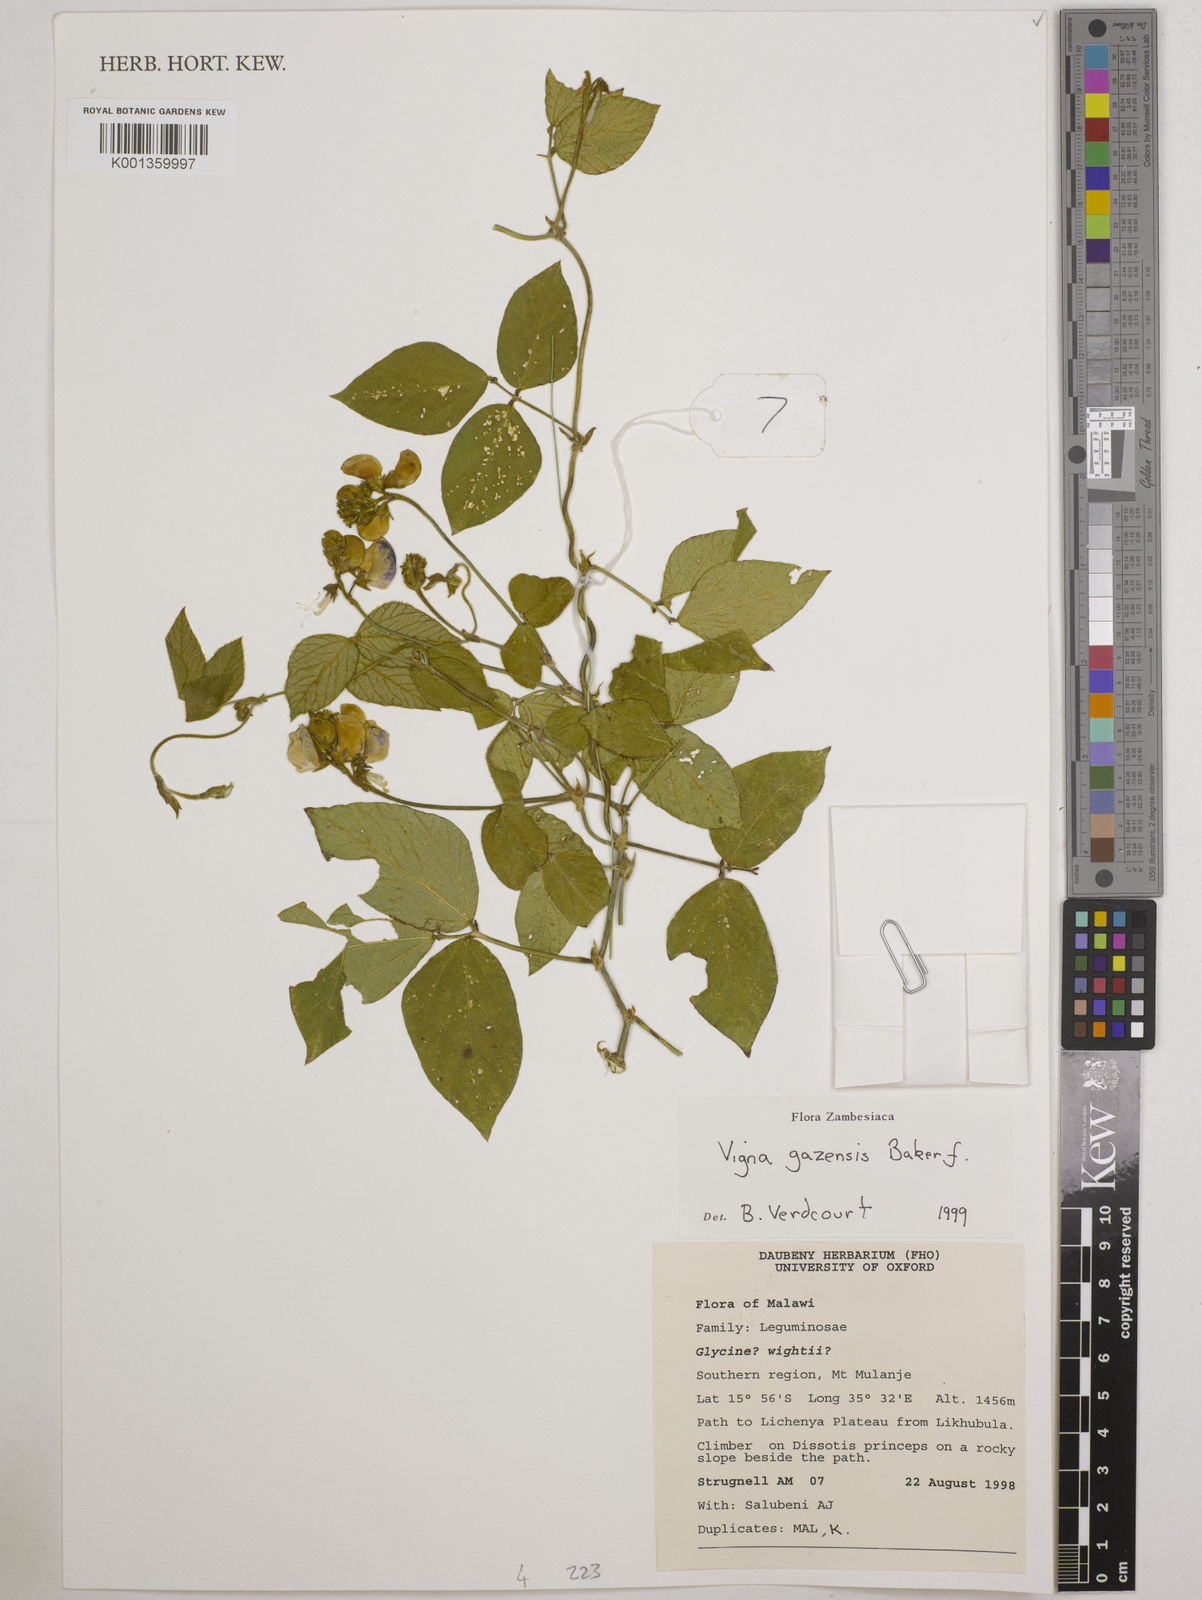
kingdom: Plantae
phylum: Tracheophyta
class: Magnoliopsida
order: Fabales
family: Fabaceae
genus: Vigna
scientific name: Vigna gazensis
